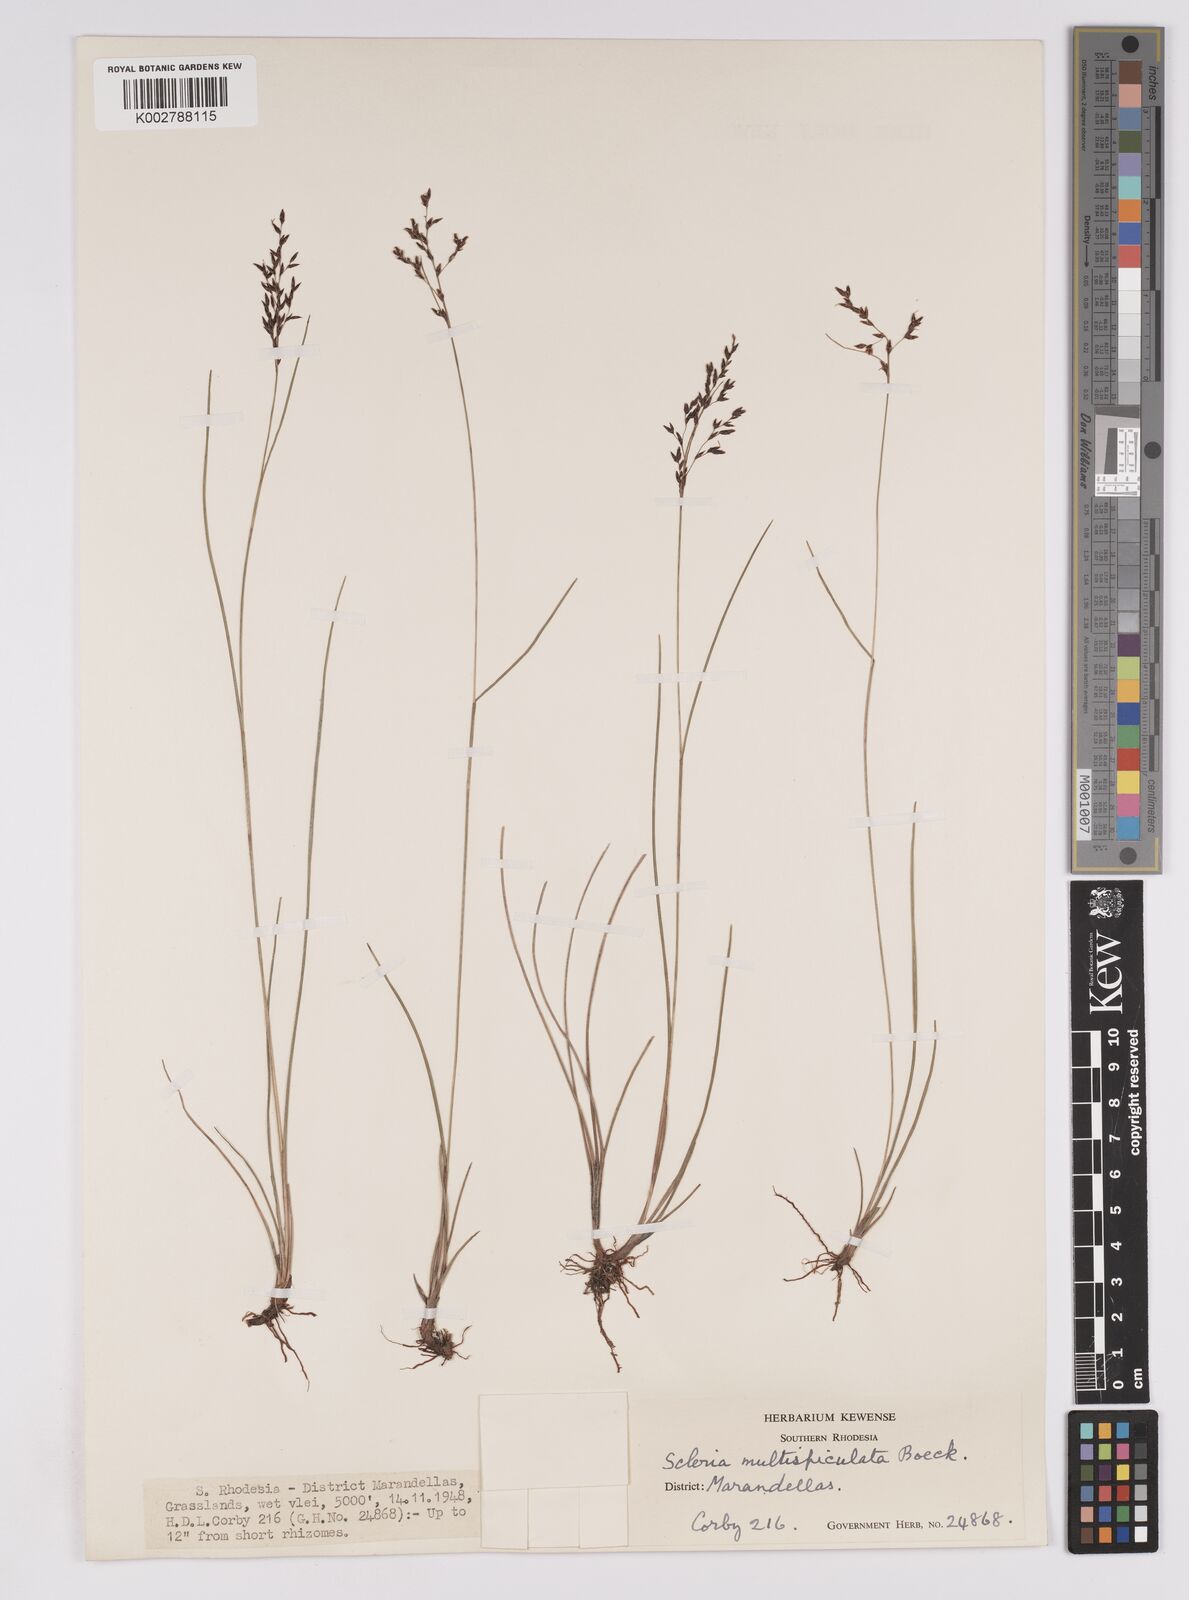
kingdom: Plantae
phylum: Tracheophyta
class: Liliopsida
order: Poales
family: Cyperaceae
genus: Scleria
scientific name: Scleria pooides
